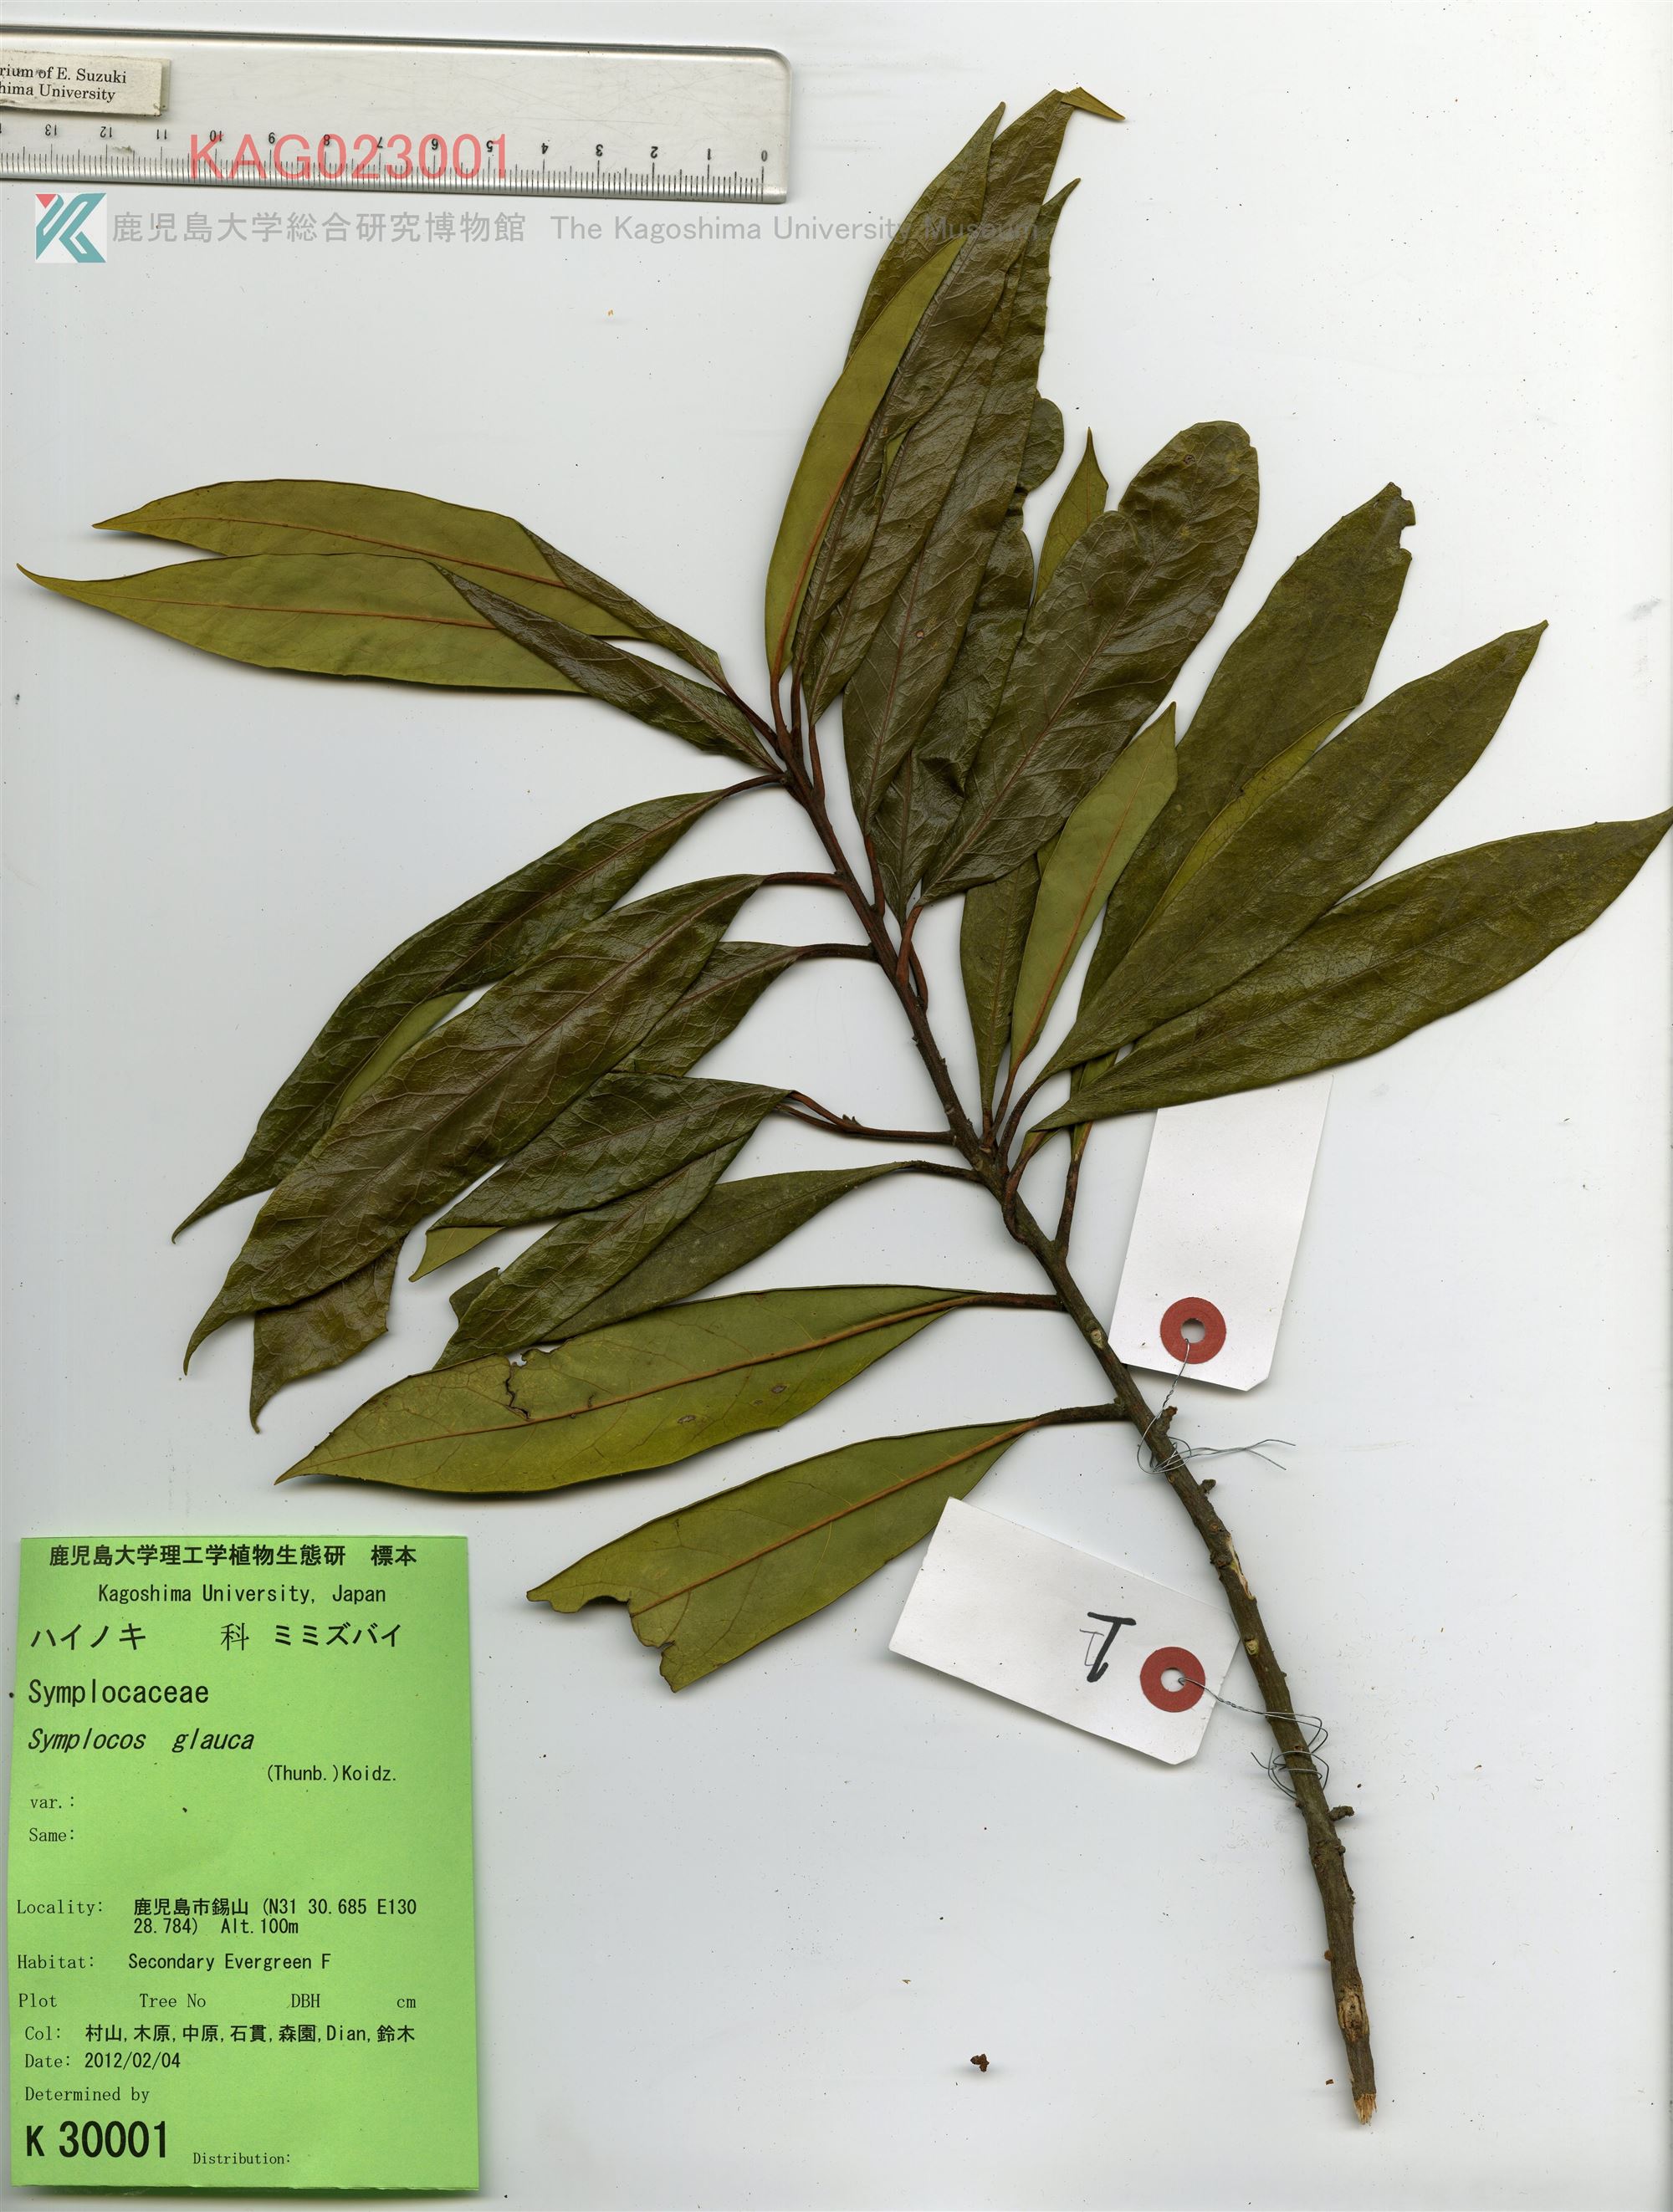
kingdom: Plantae
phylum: Tracheophyta
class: Magnoliopsida
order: Ericales
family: Symplocaceae
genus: Symplocos
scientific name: Symplocos glauca
